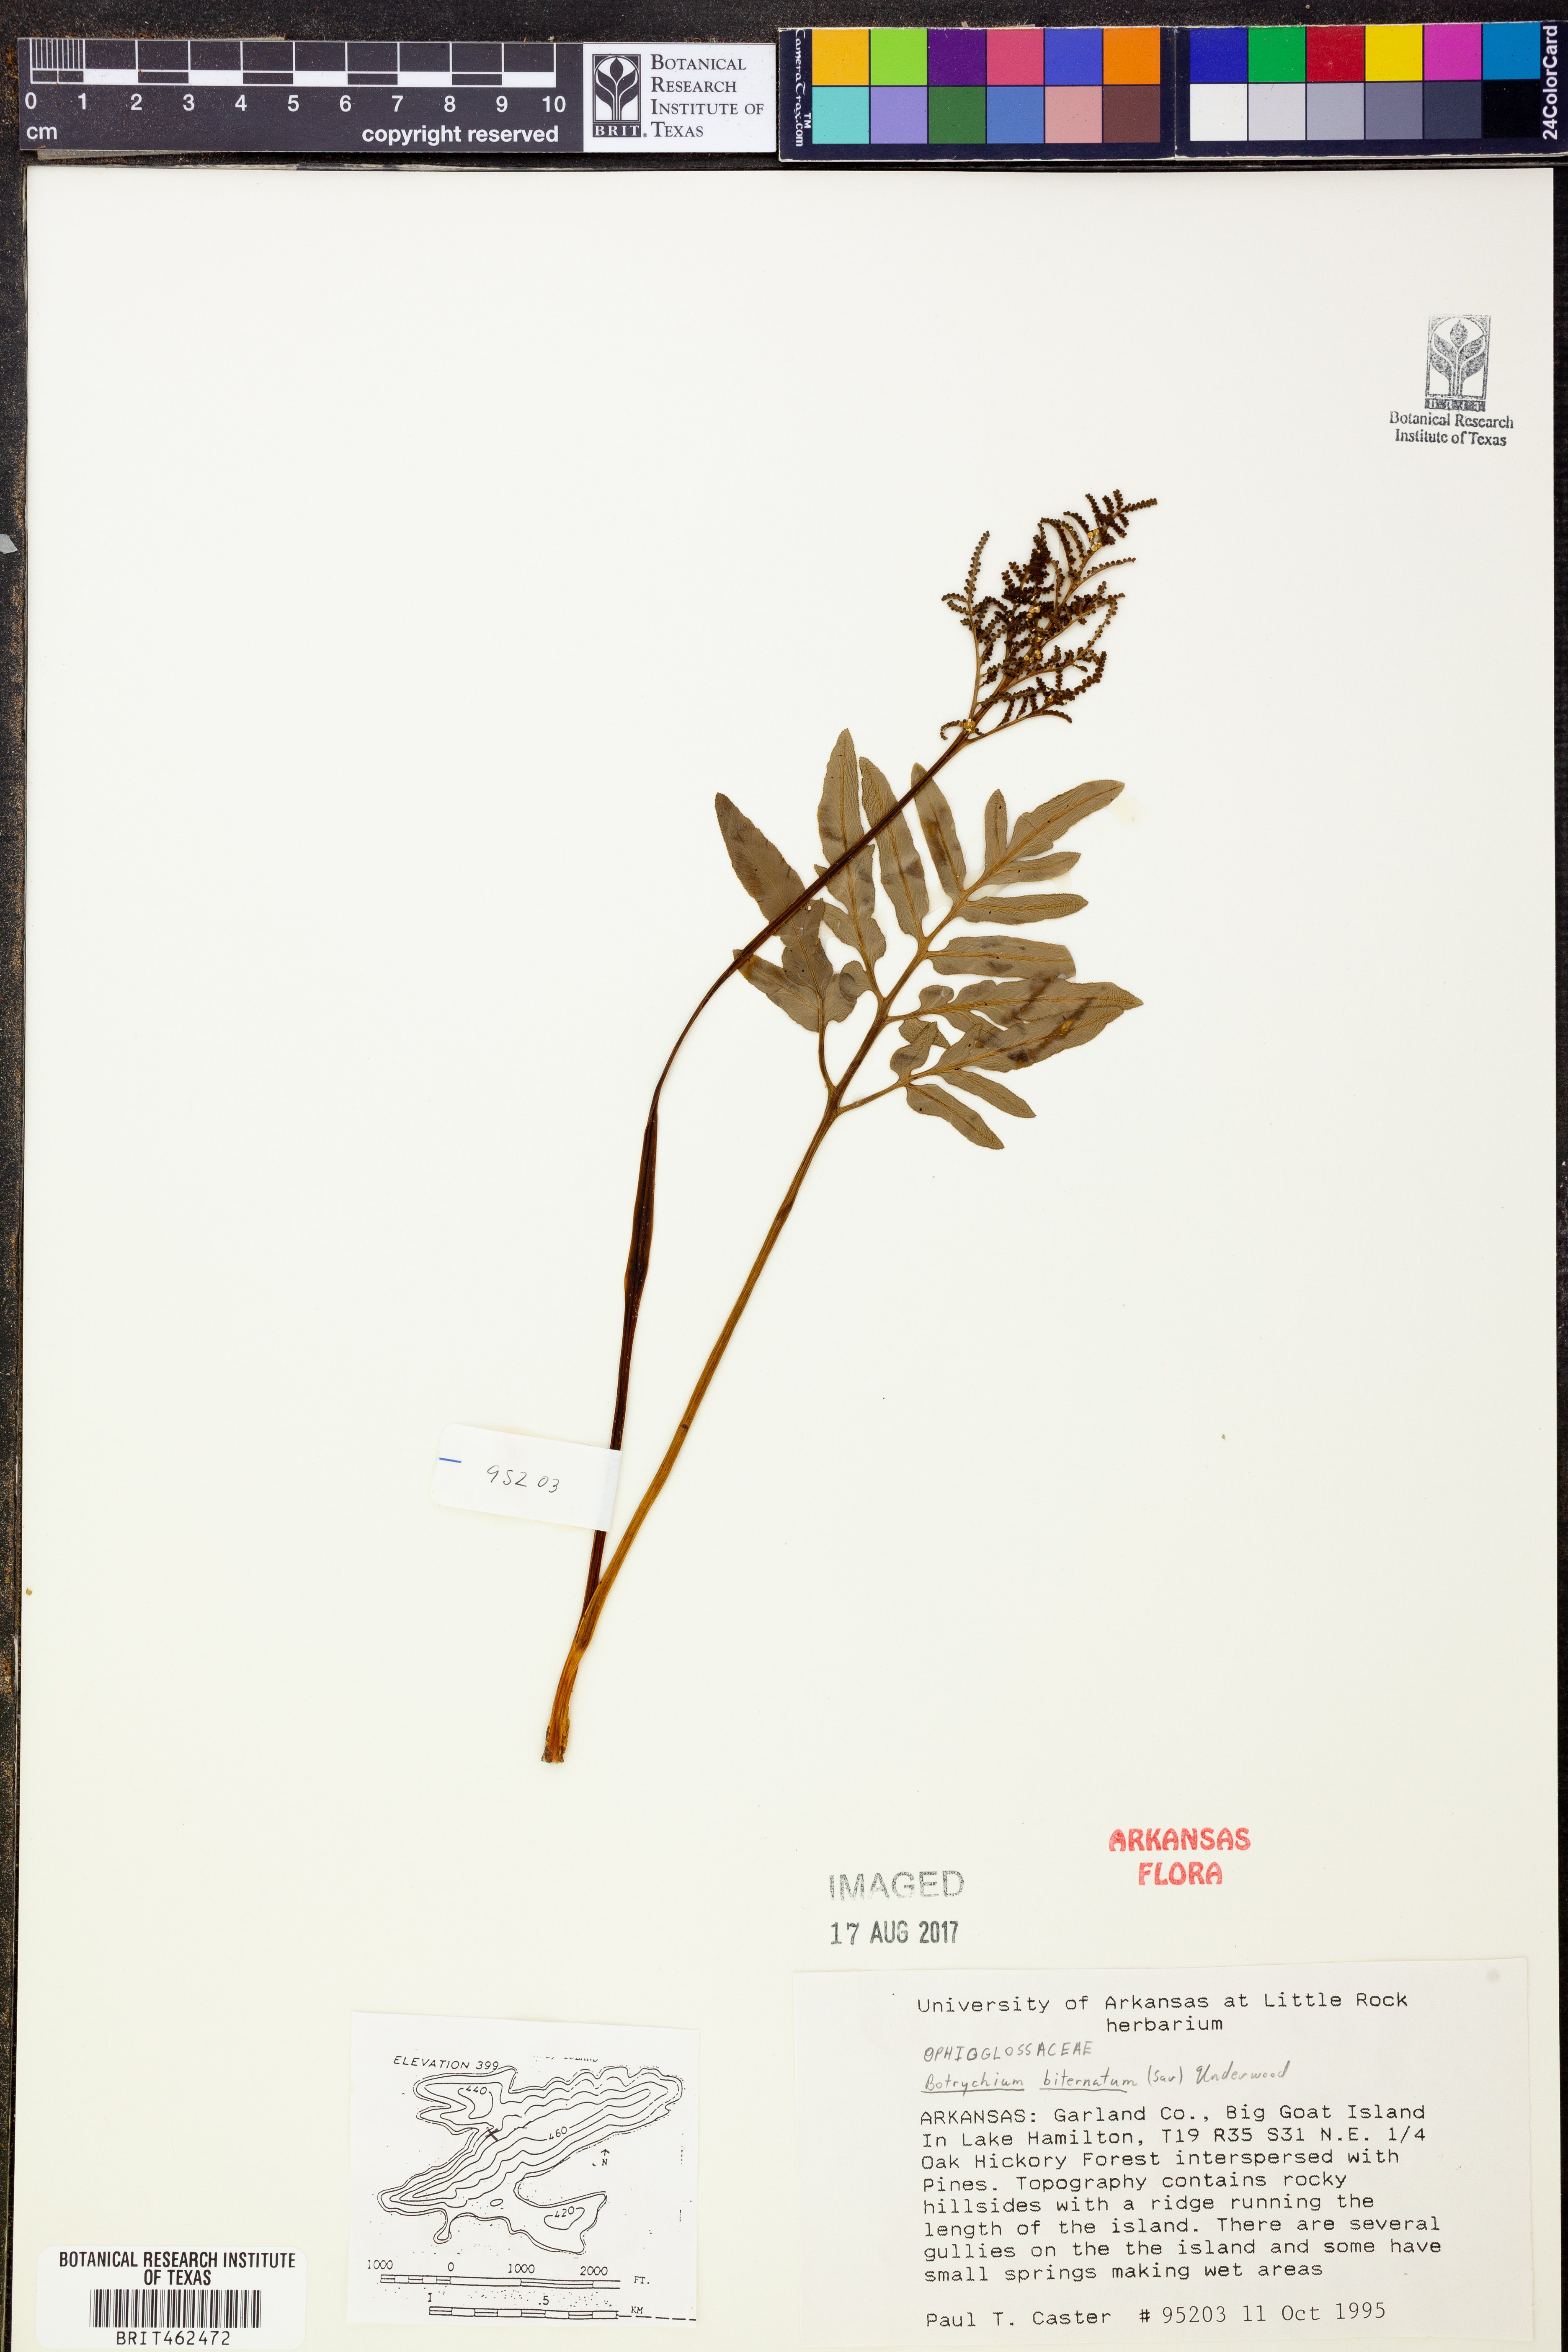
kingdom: Plantae
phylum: Tracheophyta
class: Polypodiopsida
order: Ophioglossales
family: Ophioglossaceae
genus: Sceptridium
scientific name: Sceptridium biternatum
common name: Sparse-lobed grapefern
